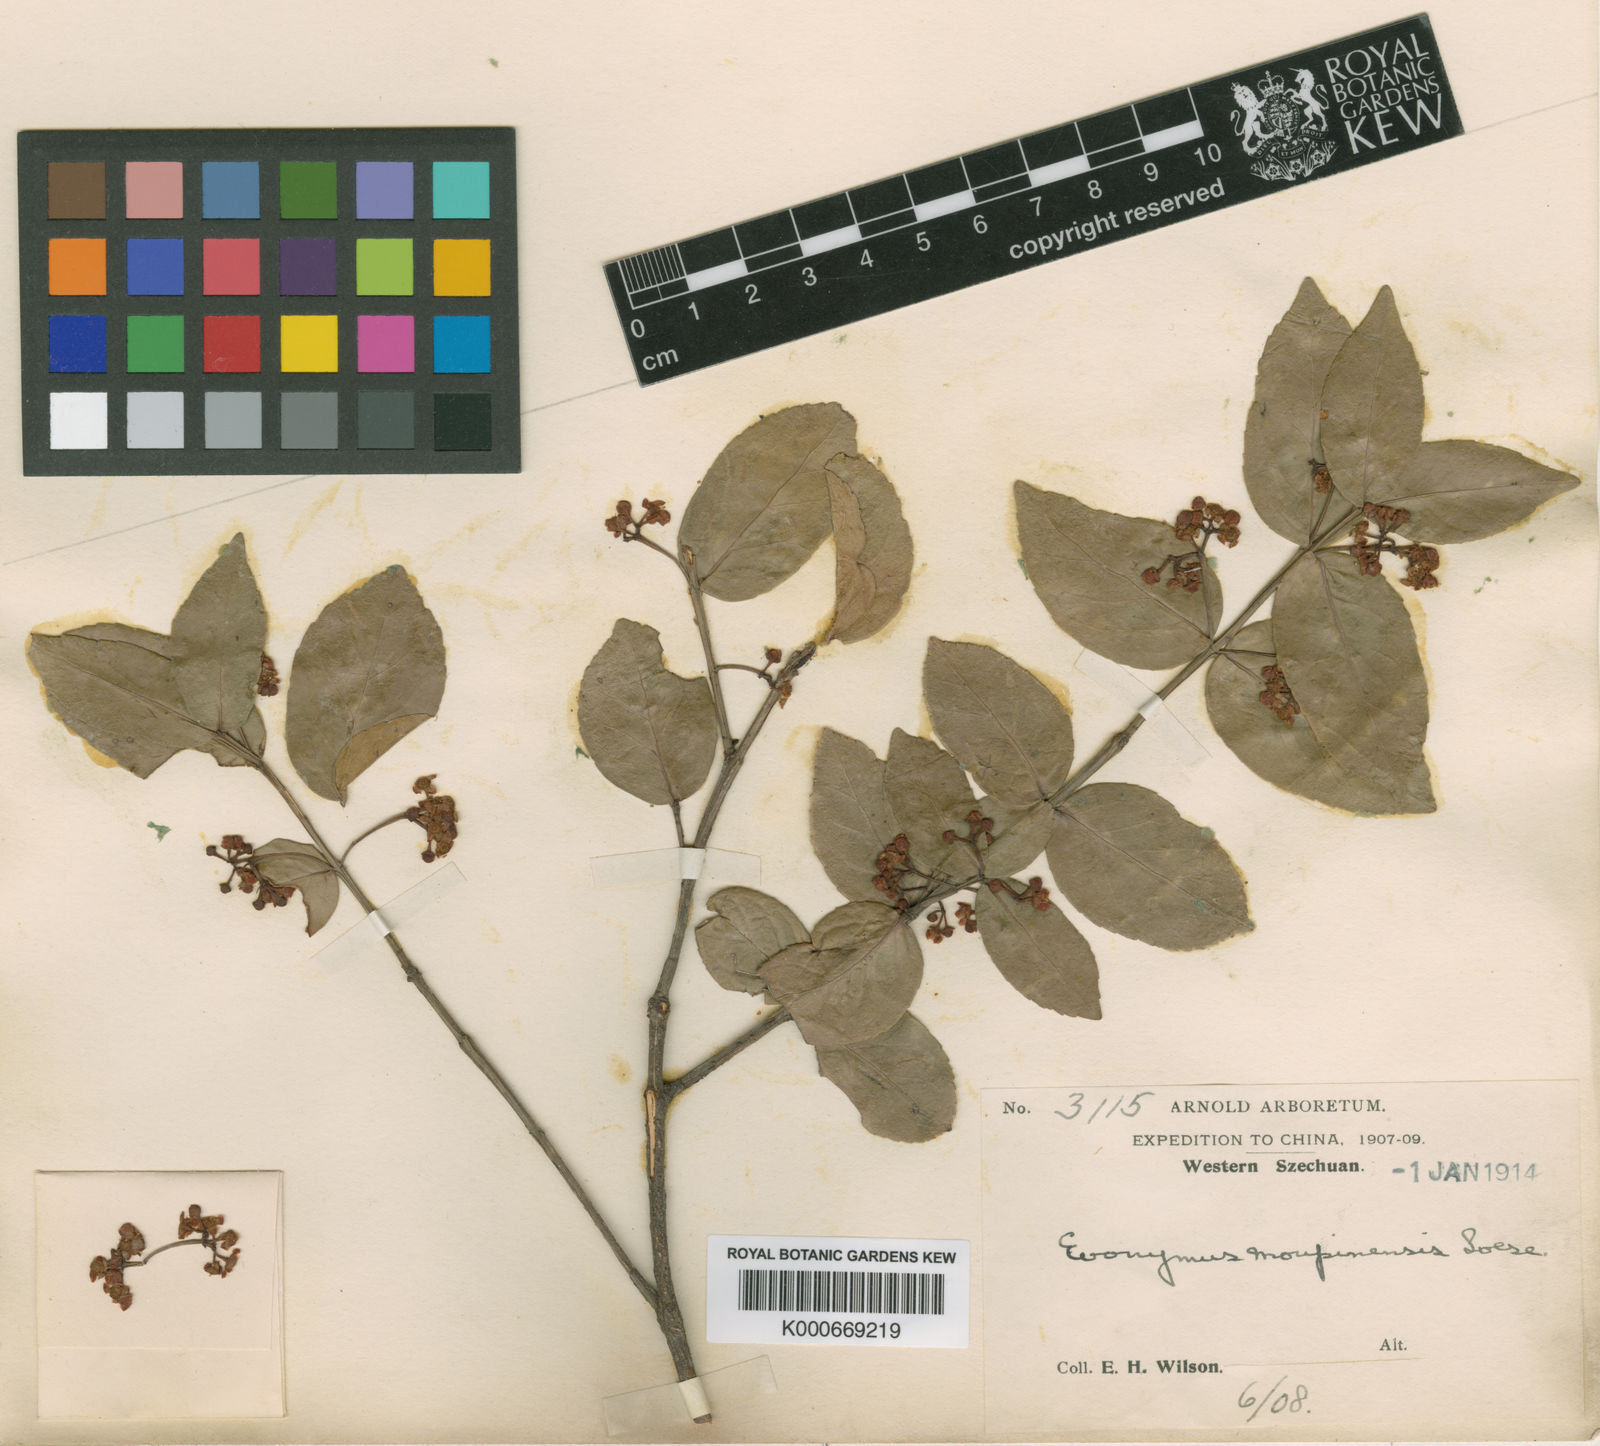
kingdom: Plantae
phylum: Tracheophyta
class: Magnoliopsida
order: Celastrales
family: Celastraceae
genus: Euonymus
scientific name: Euonymus
